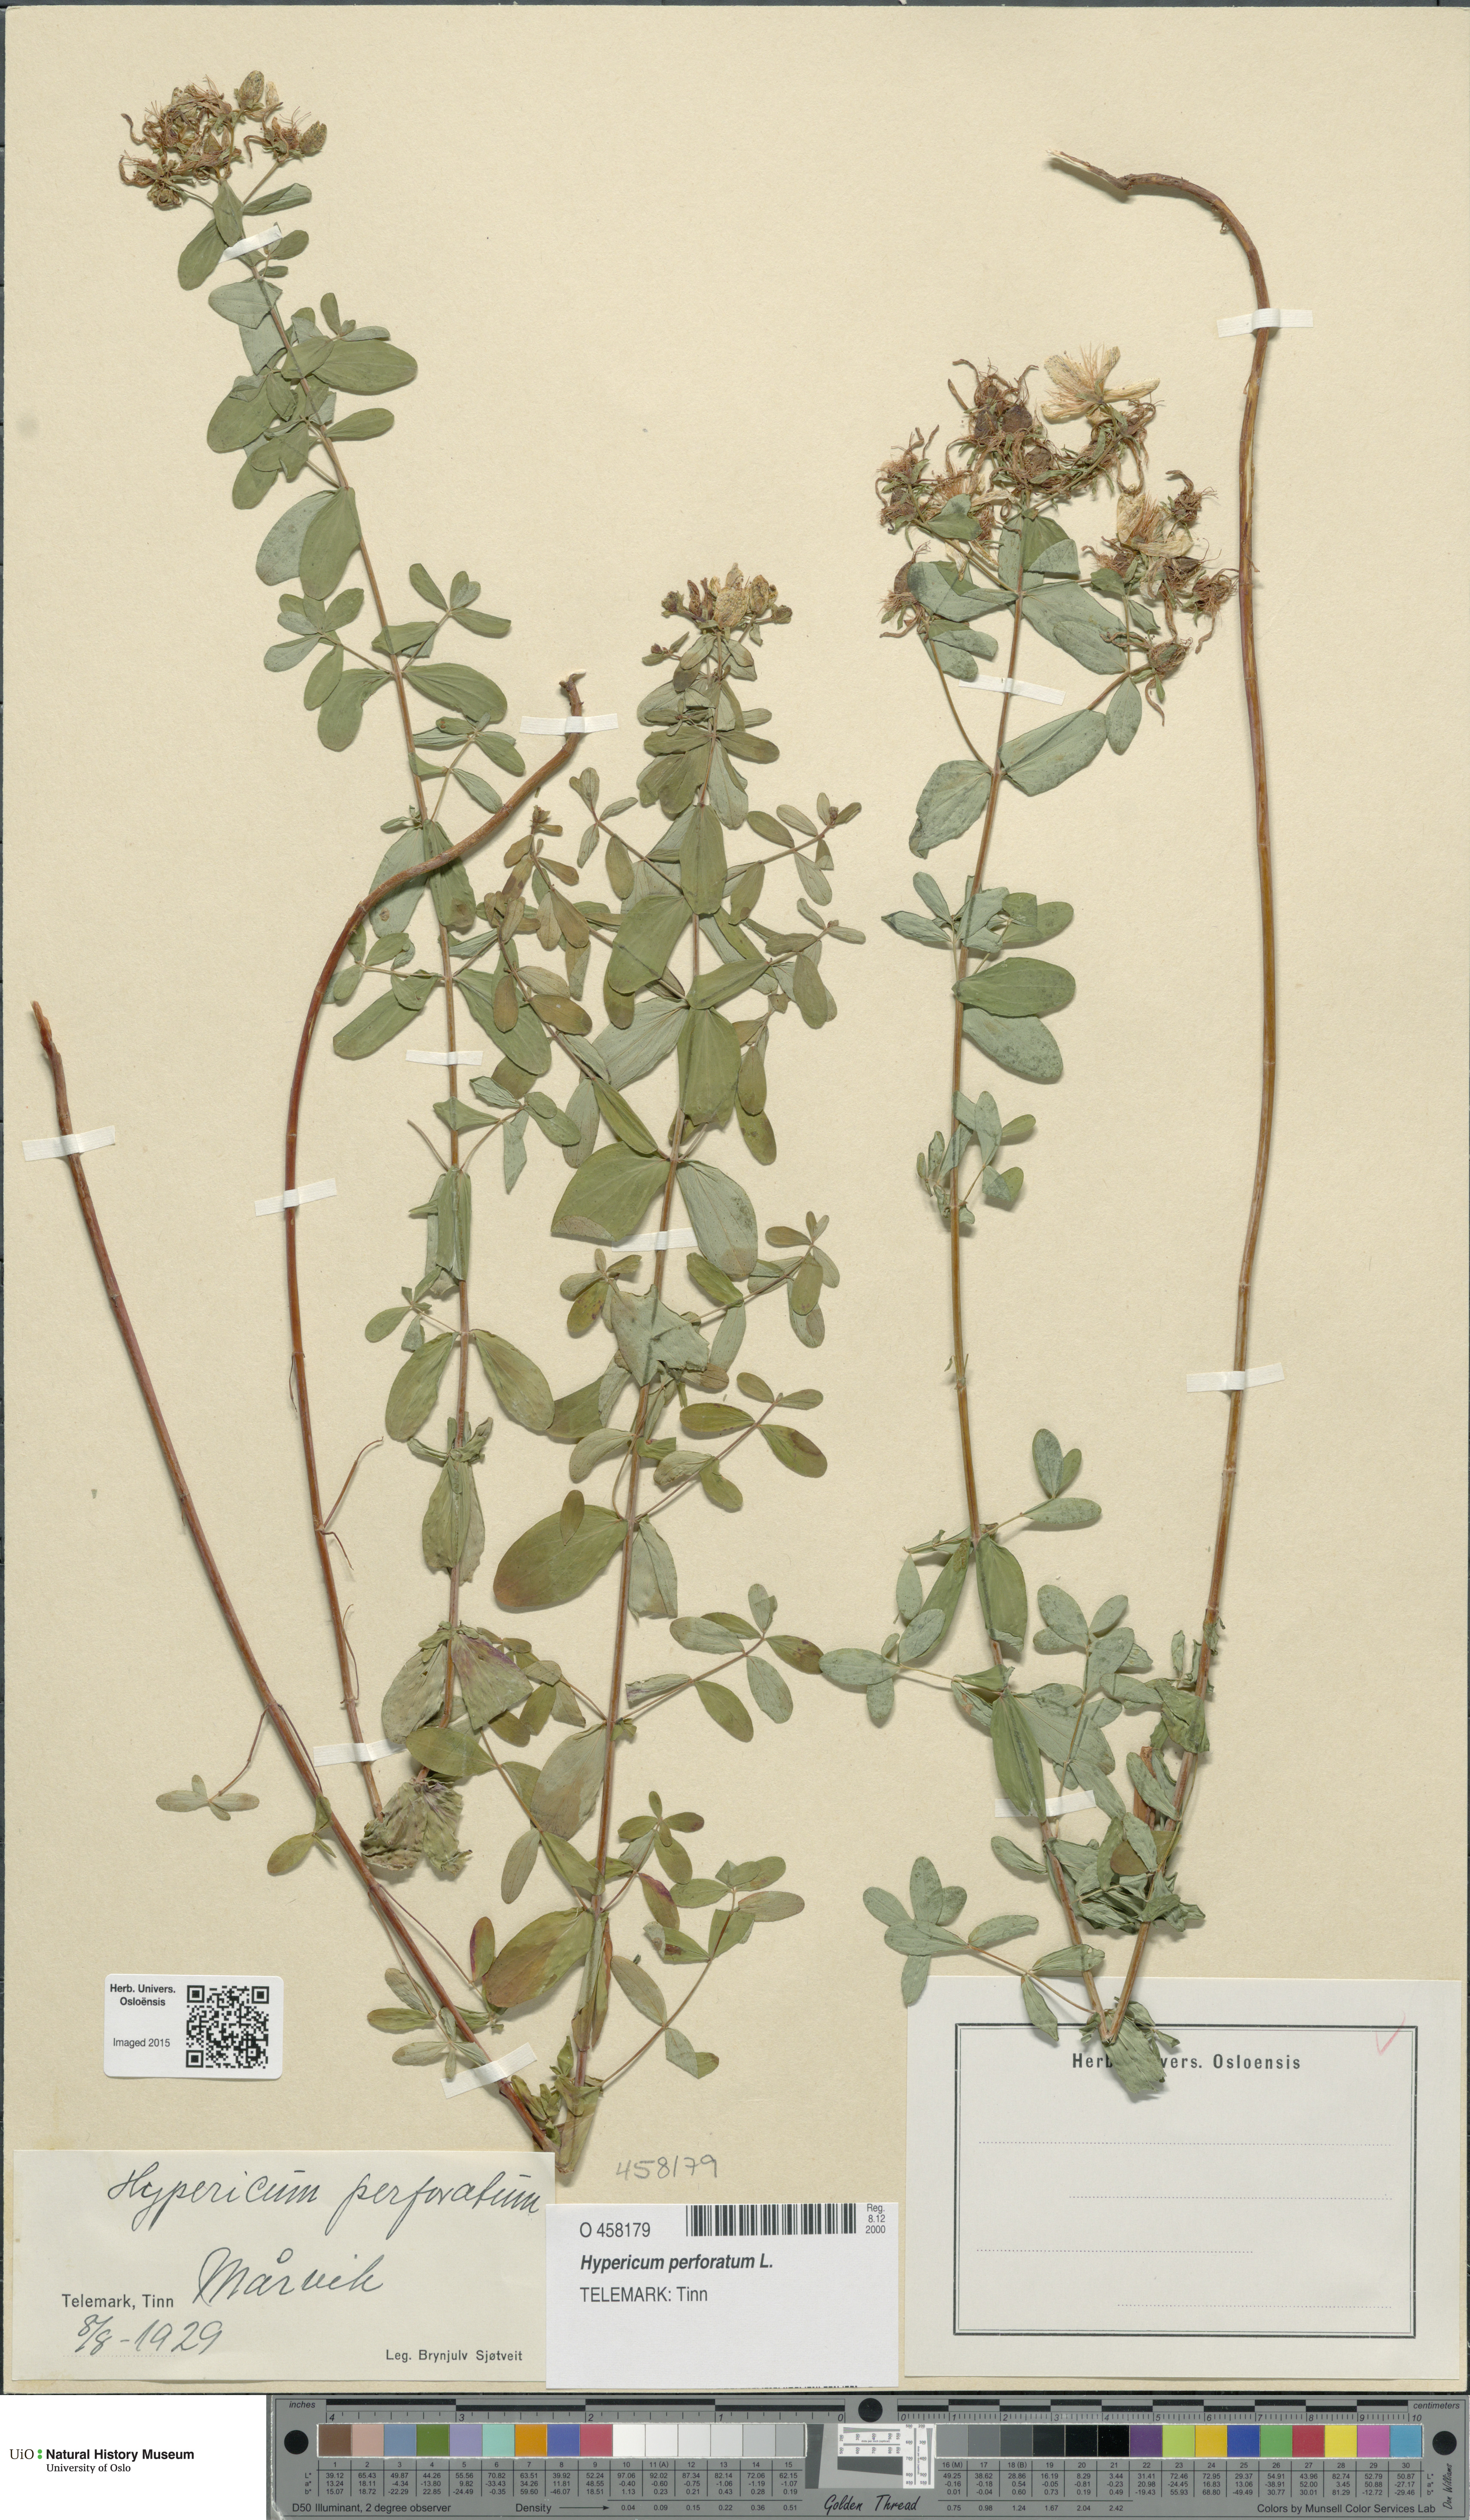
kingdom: Plantae
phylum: Tracheophyta
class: Magnoliopsida
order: Malpighiales
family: Hypericaceae
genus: Hypericum
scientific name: Hypericum perforatum
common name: Common st. johnswort
